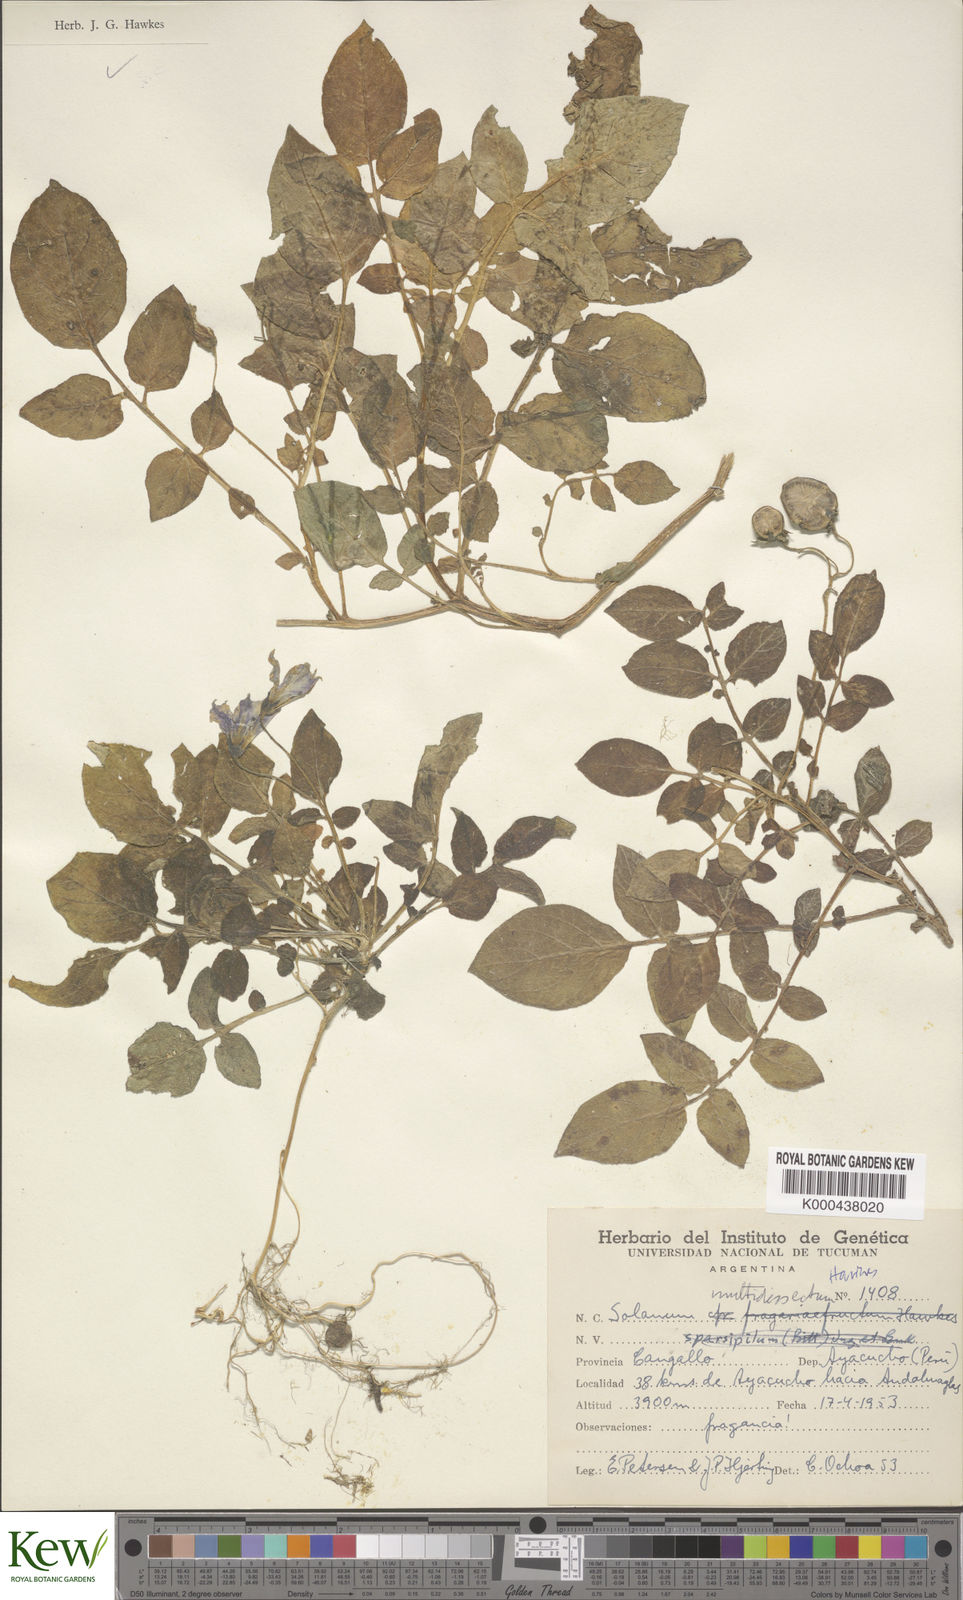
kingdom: Plantae
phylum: Tracheophyta
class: Magnoliopsida
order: Solanales
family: Solanaceae
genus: Solanum
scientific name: Solanum candolleanum
